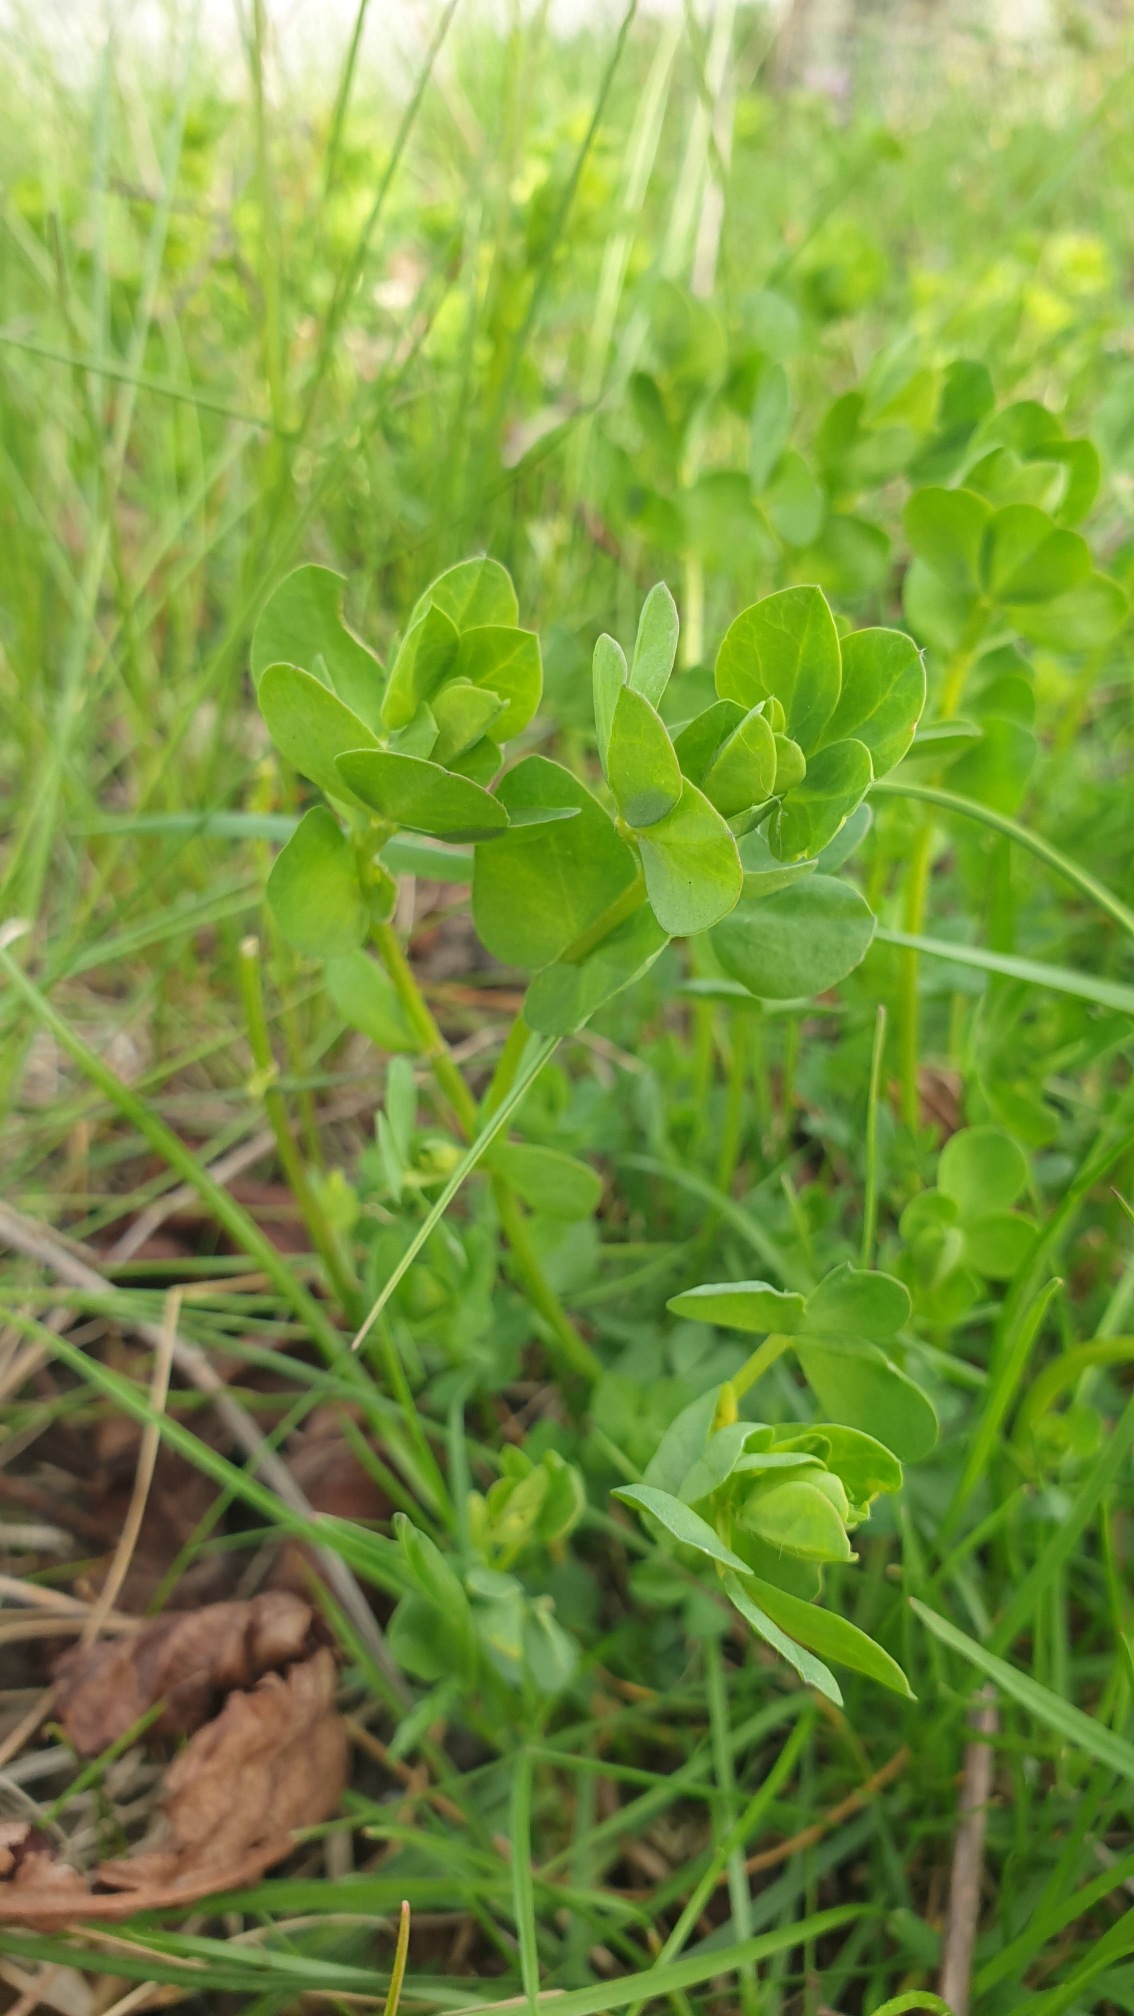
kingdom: Plantae
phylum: Tracheophyta
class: Magnoliopsida
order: Fabales
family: Fabaceae
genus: Lotus
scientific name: Lotus corniculatus
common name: Almindelig kællingetand
